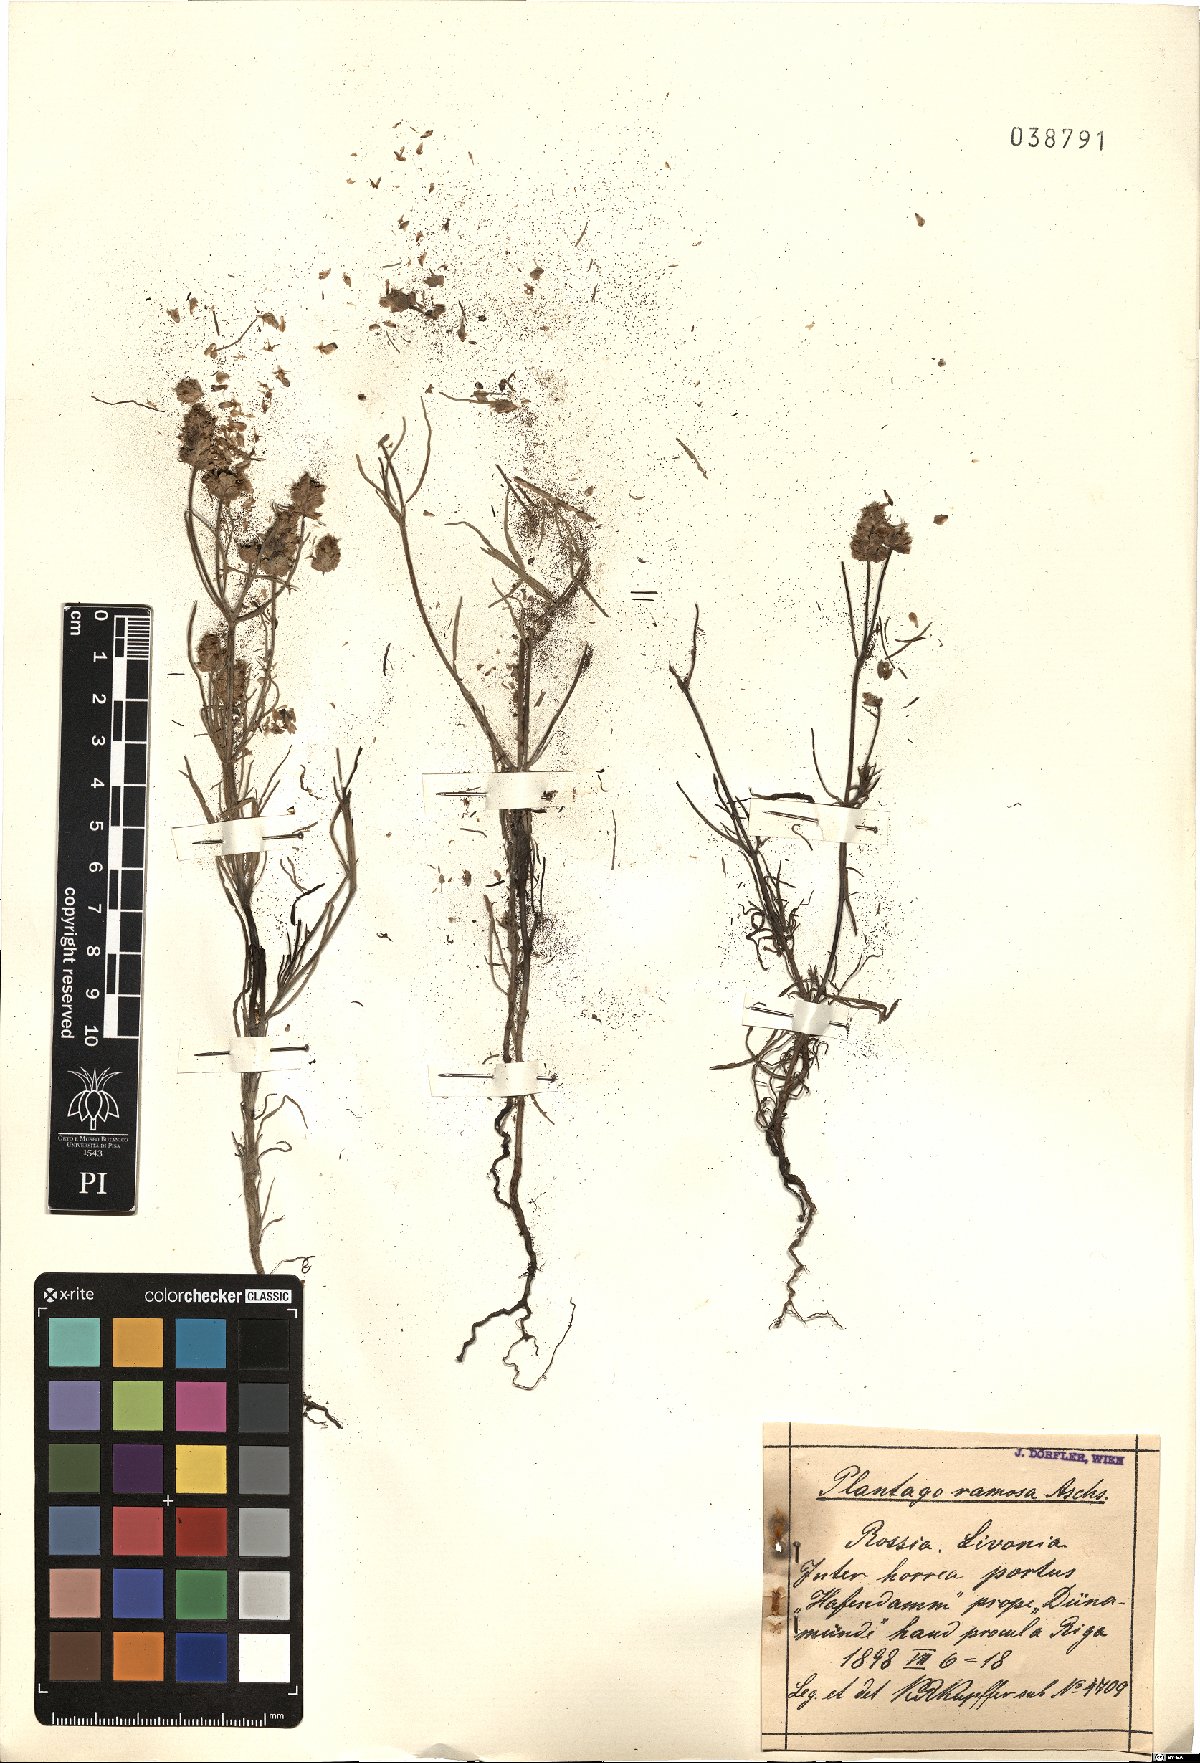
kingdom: Plantae
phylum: Tracheophyta
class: Magnoliopsida
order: Lamiales
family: Plantaginaceae
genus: Plantago
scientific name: Plantago arenaria
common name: Branched plantain
